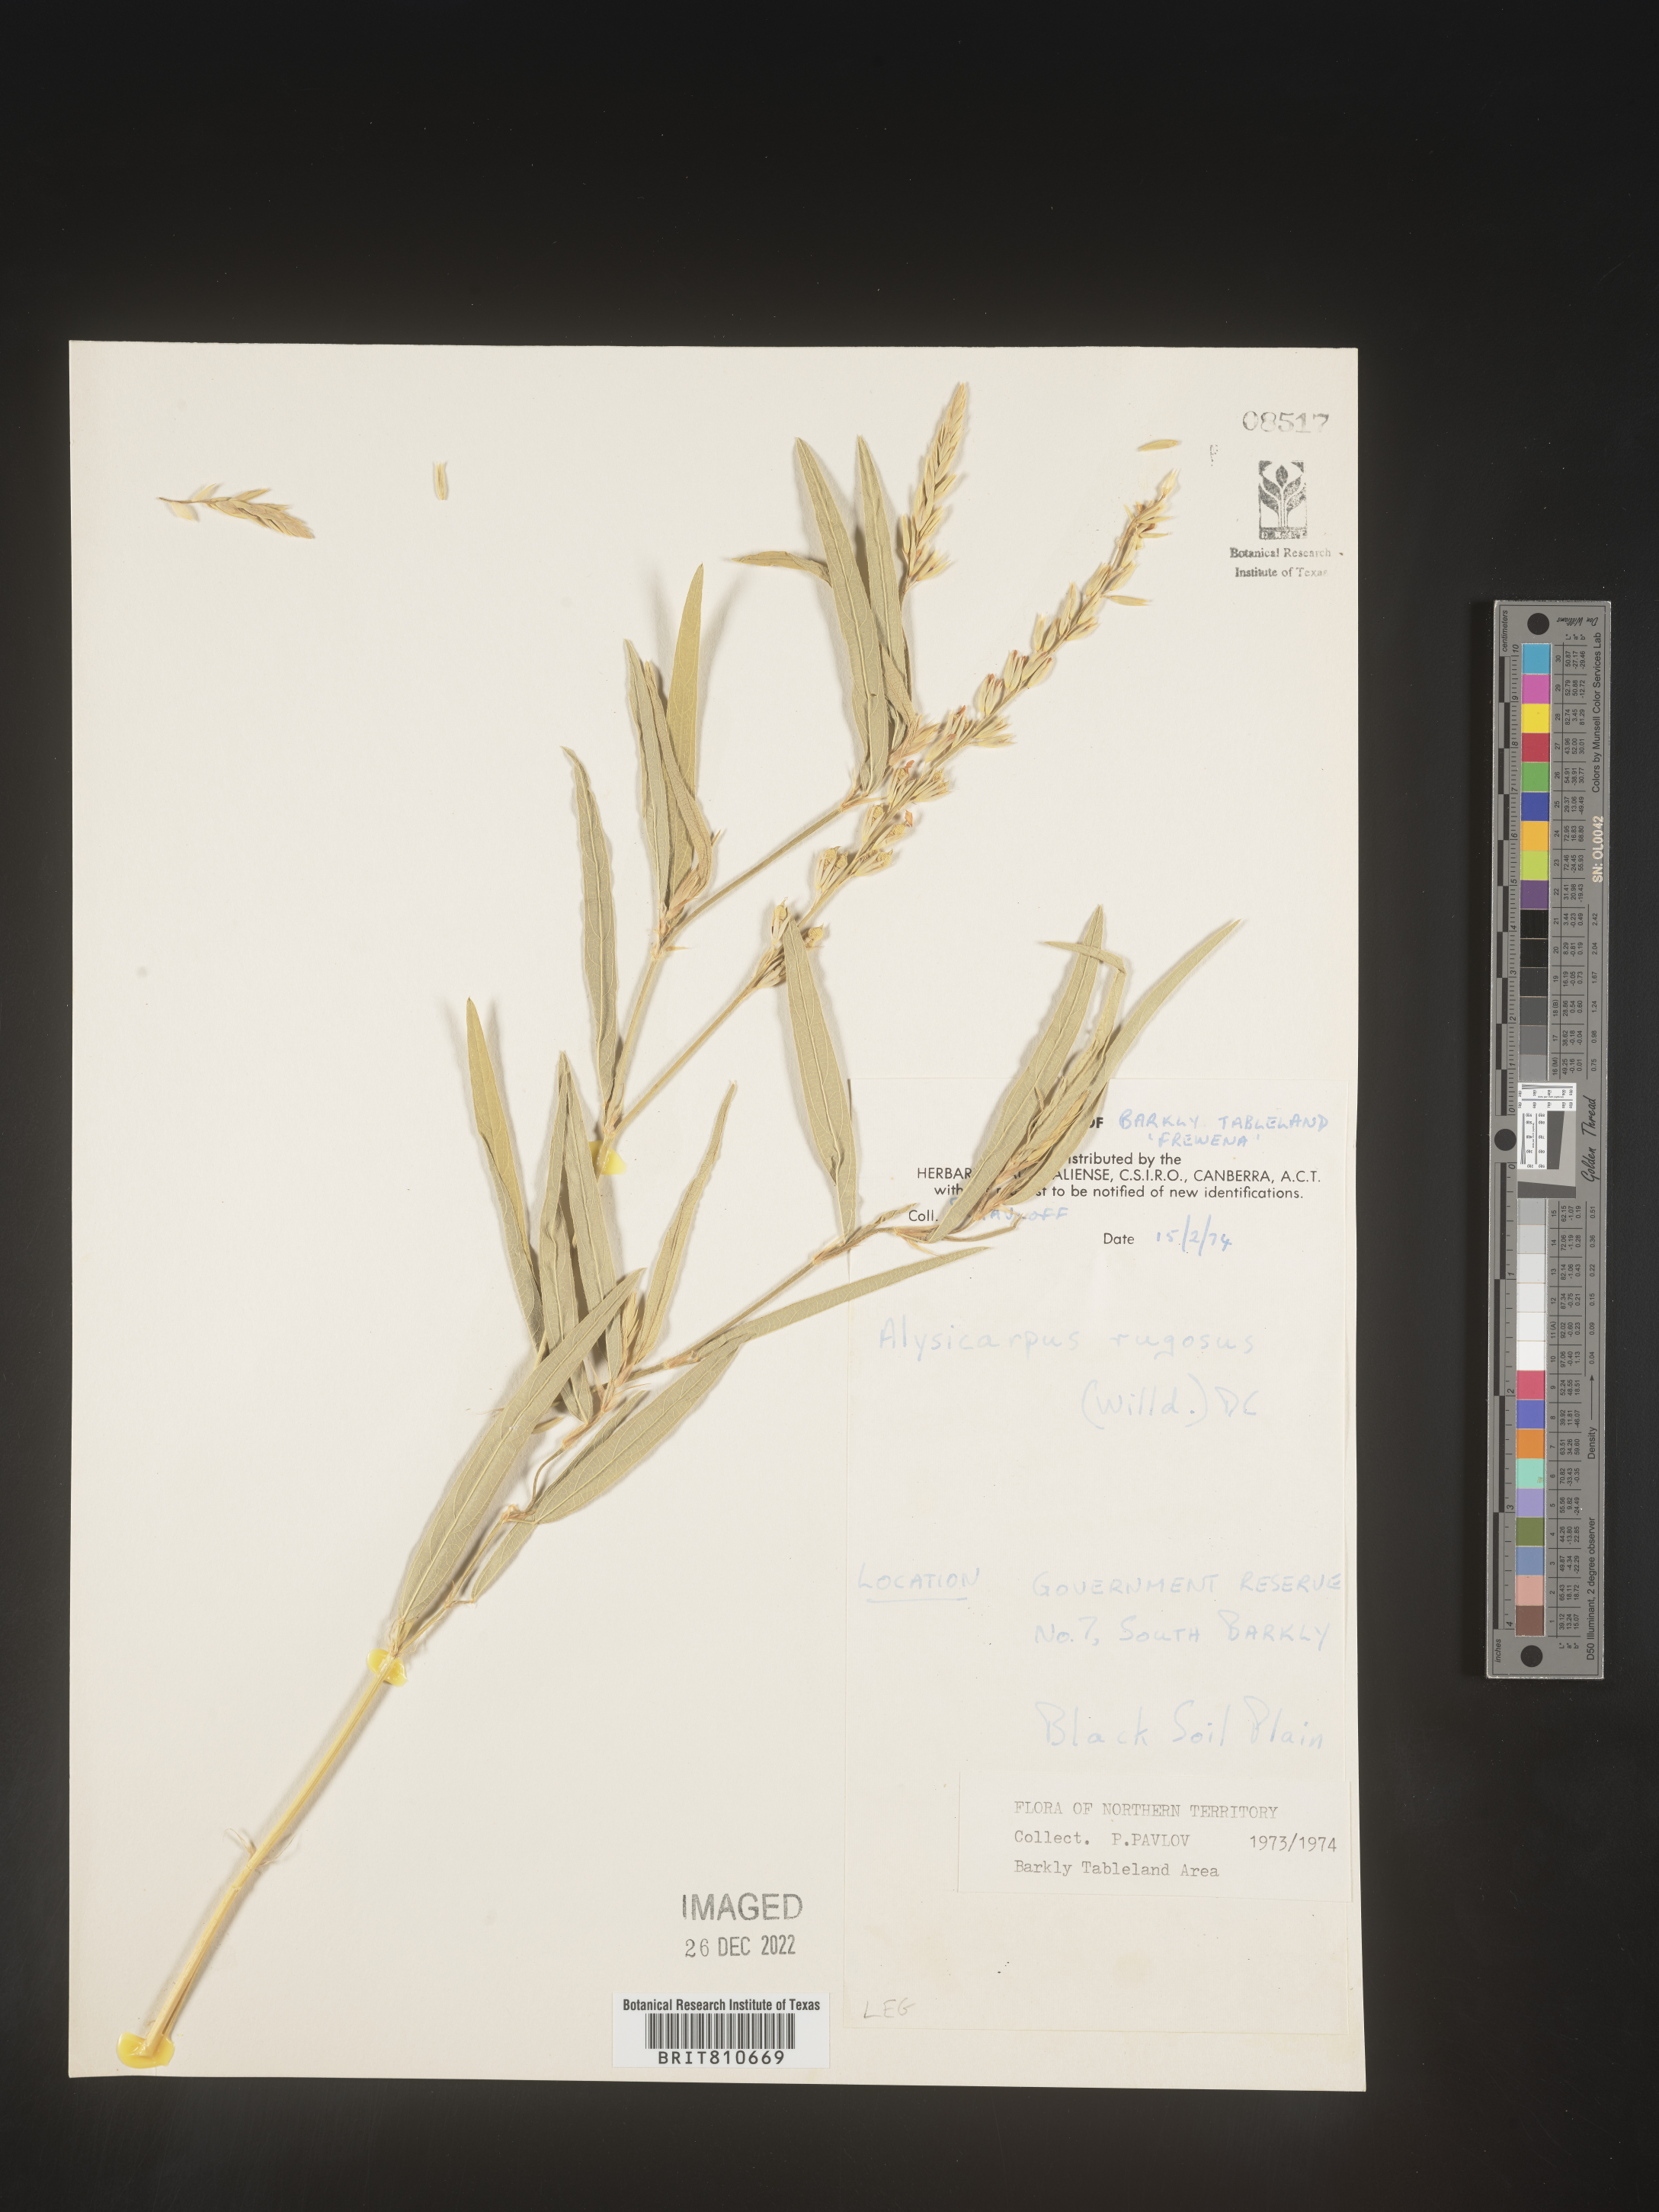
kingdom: Plantae
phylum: Tracheophyta
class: Magnoliopsida
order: Fabales
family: Fabaceae
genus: Alysicarpus
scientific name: Alysicarpus rugosus
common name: Red moneywort
